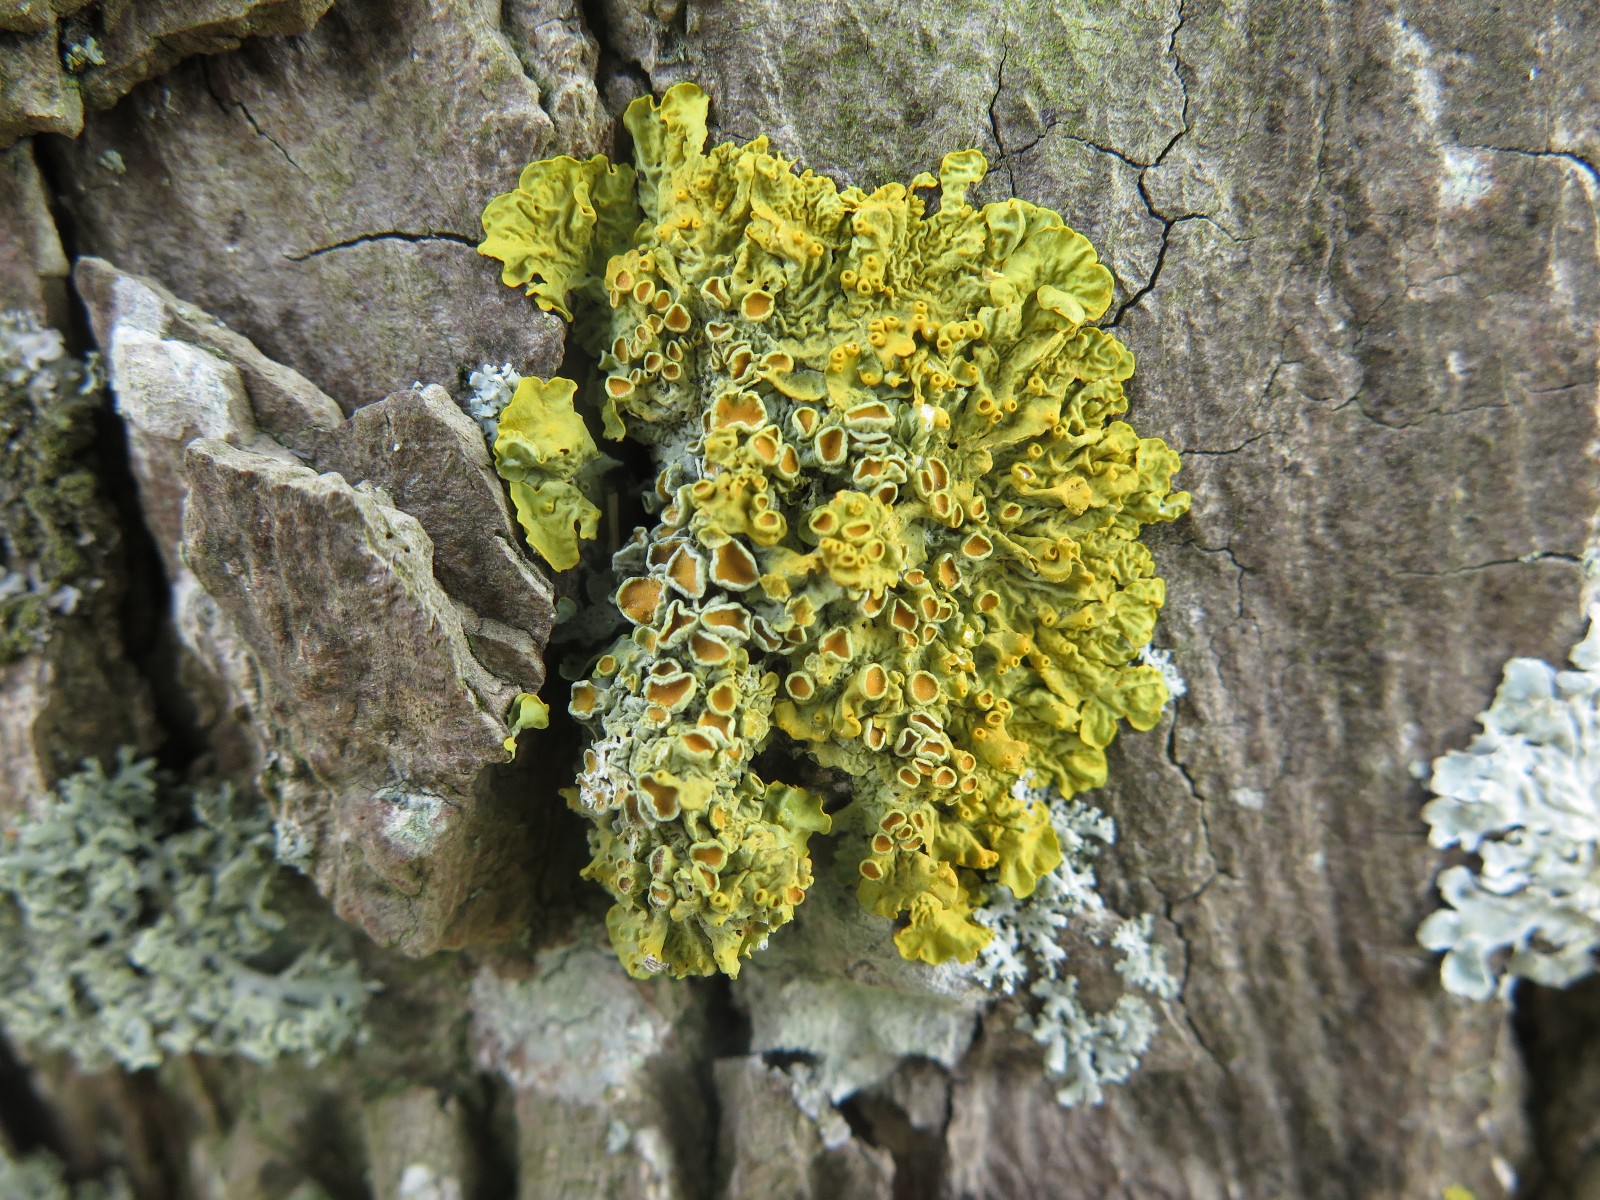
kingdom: Fungi
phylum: Ascomycota
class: Lecanoromycetes
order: Teloschistales
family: Teloschistaceae
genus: Xanthoria
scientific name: Xanthoria parietina
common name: almindelig væggelav
